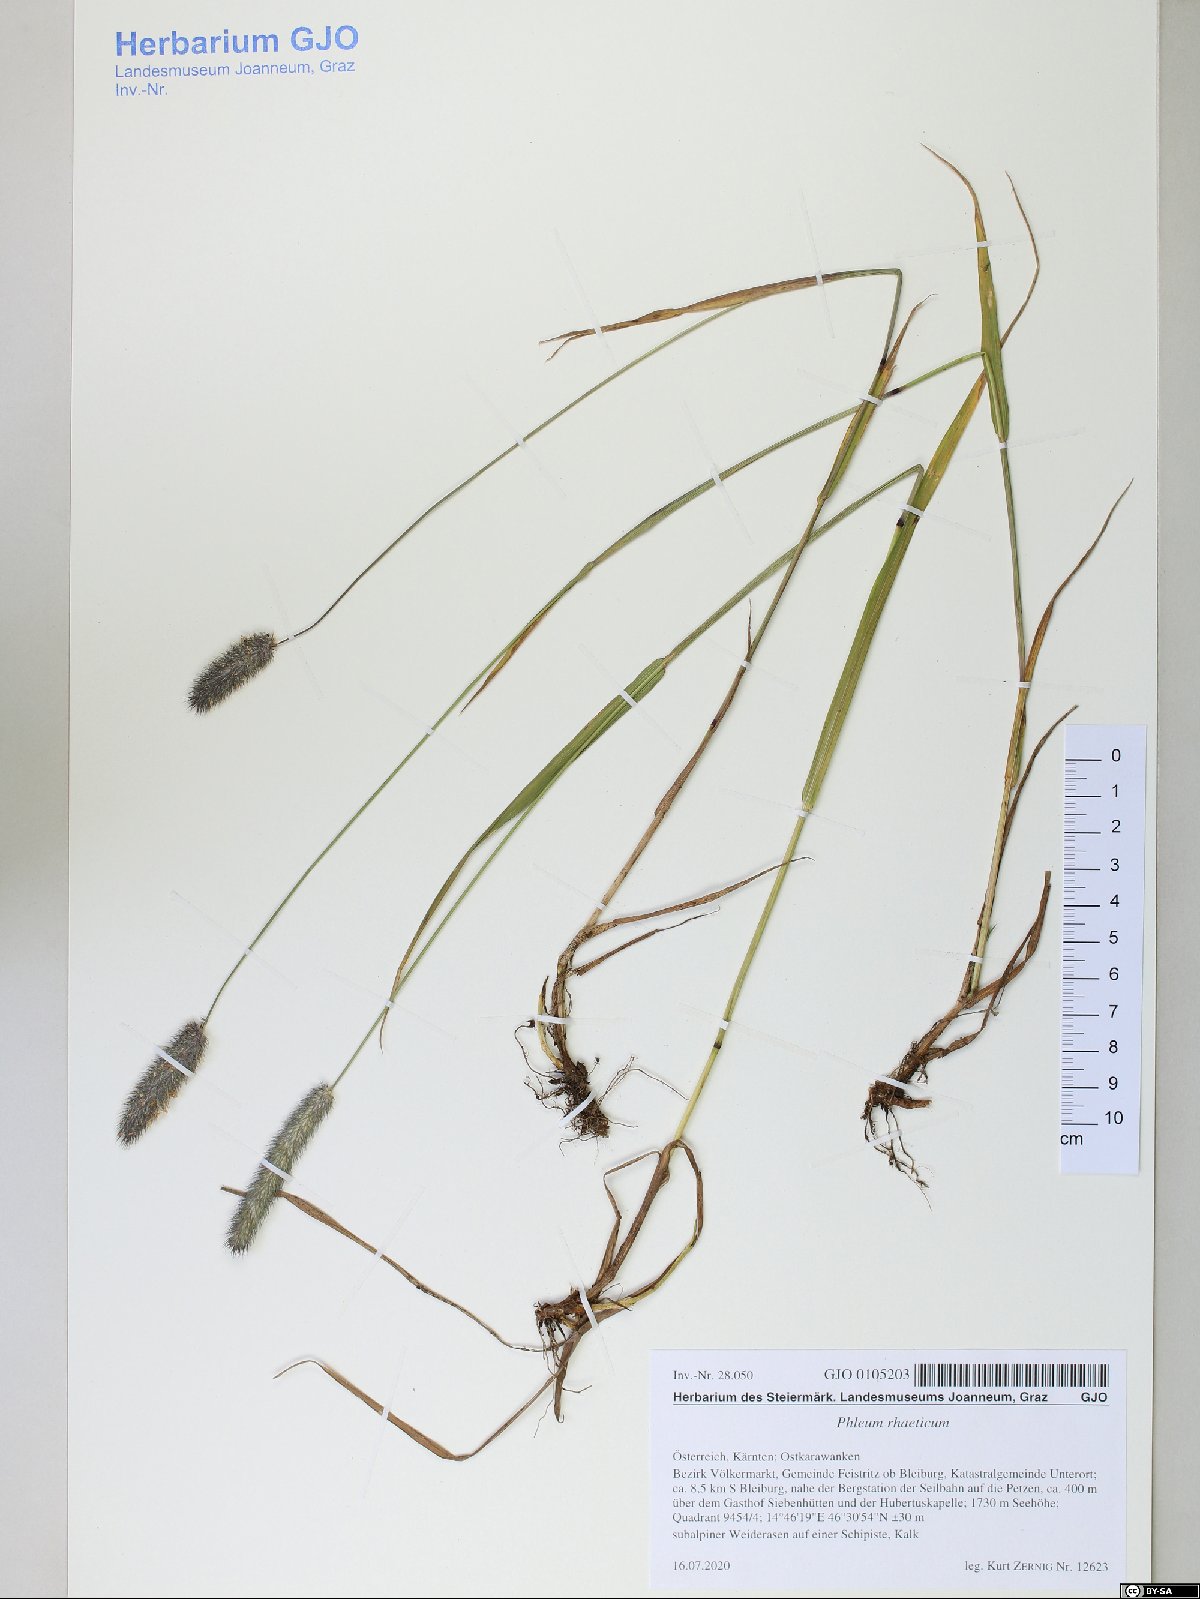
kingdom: Plantae
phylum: Tracheophyta
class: Liliopsida
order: Poales
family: Poaceae
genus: Phleum
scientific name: Phleum alpinum
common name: Alpine cat's-tail
